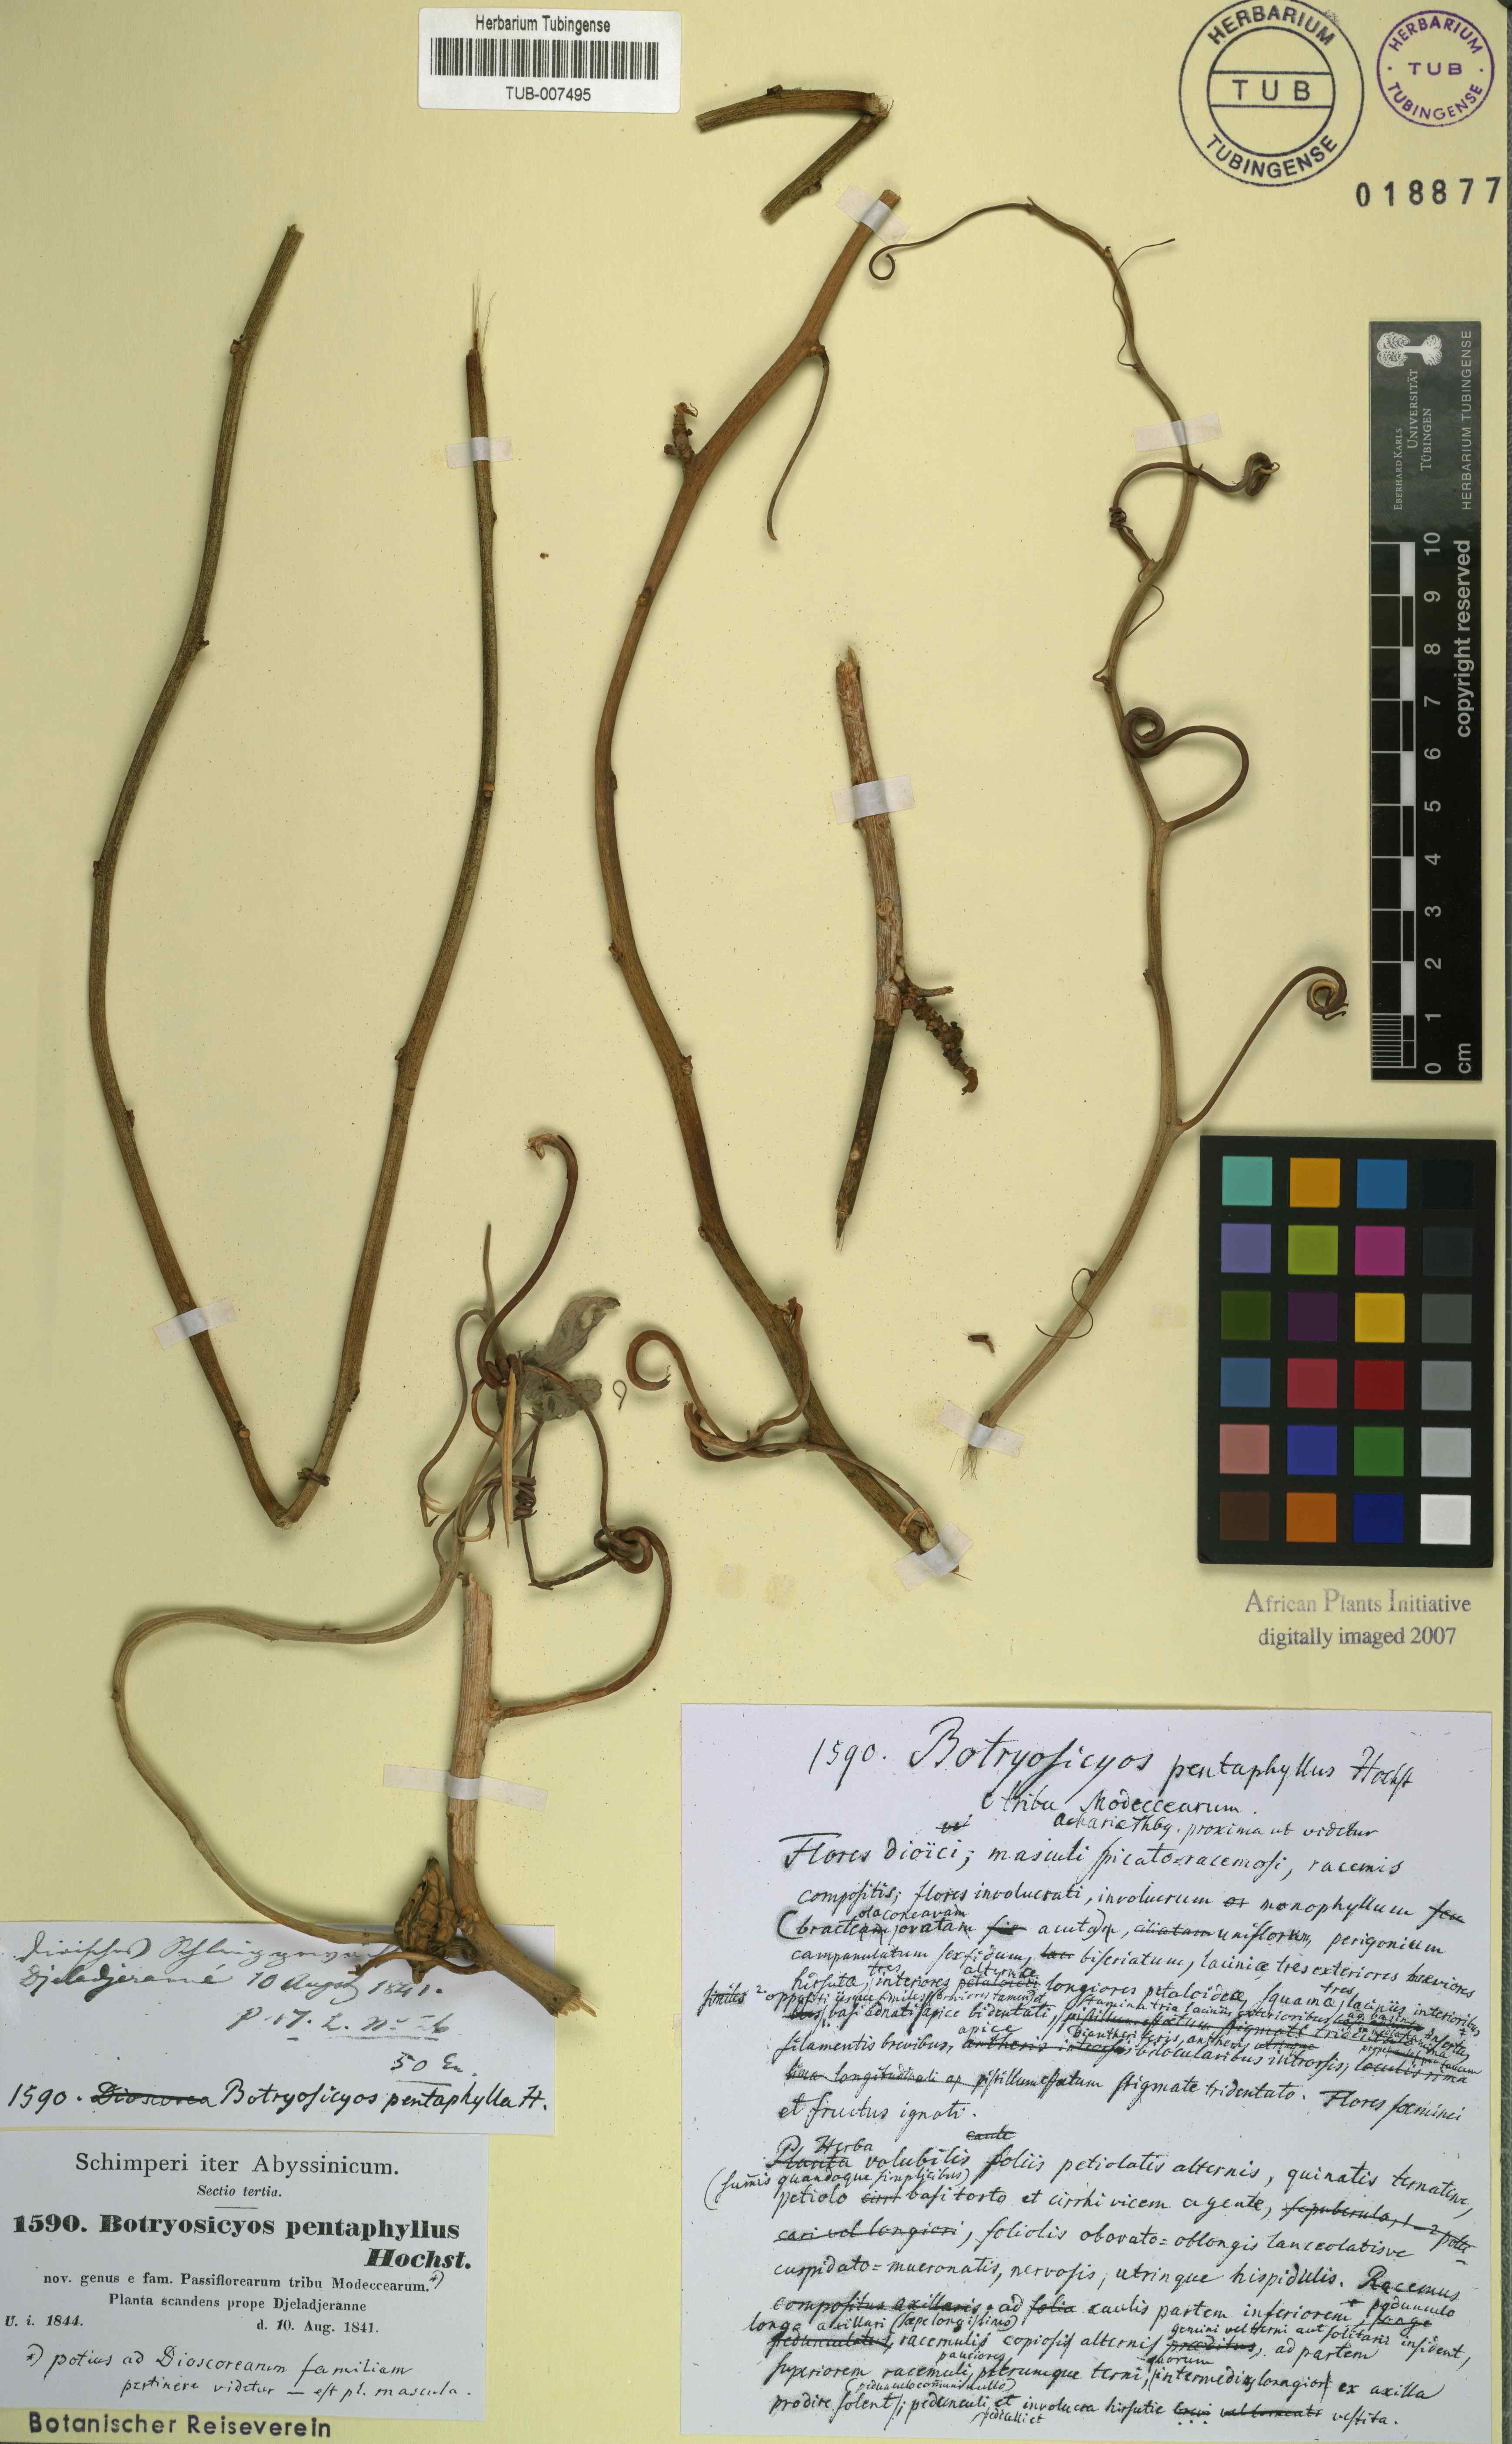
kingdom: Plantae
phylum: Tracheophyta
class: Liliopsida
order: Dioscoreales
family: Dioscoreaceae
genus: Dioscorea
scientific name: Dioscorea pentaphylla
